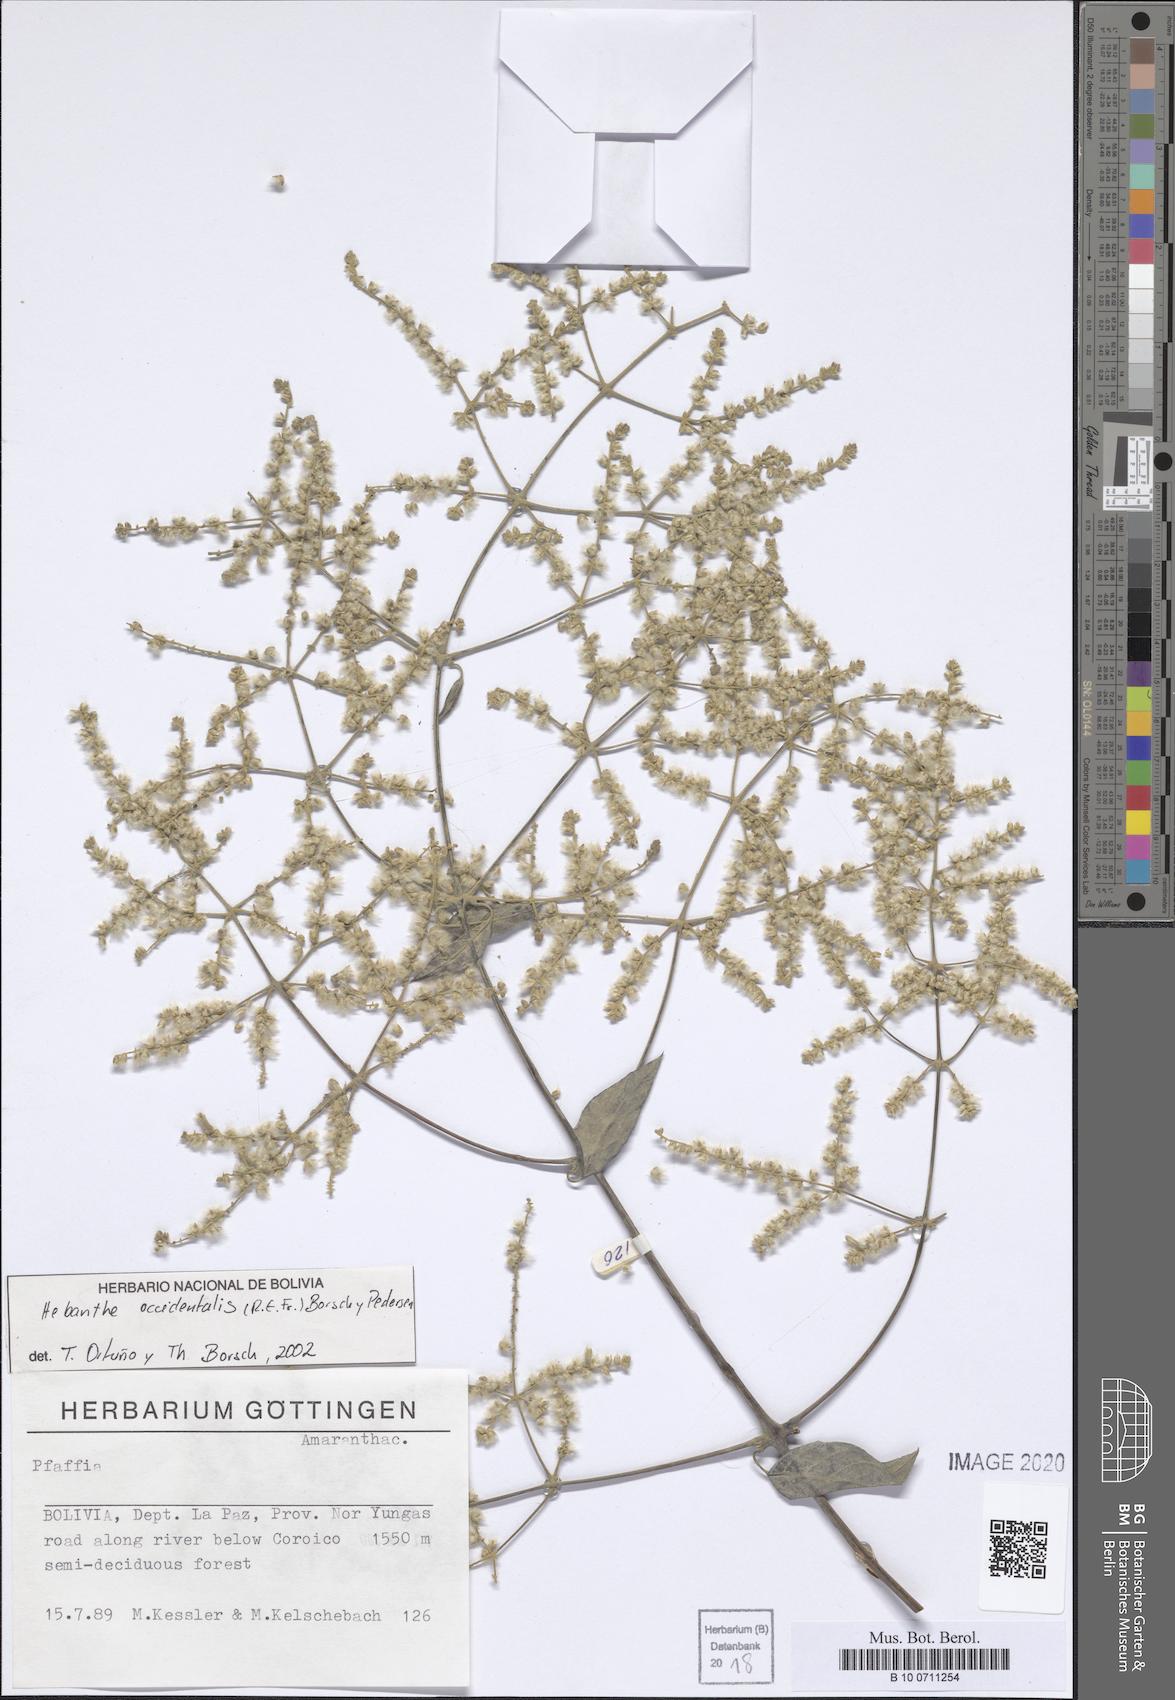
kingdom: Plantae
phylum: Tracheophyta
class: Magnoliopsida
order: Caryophyllales
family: Amaranthaceae
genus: Hebanthe
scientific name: Hebanthe occidentalis
